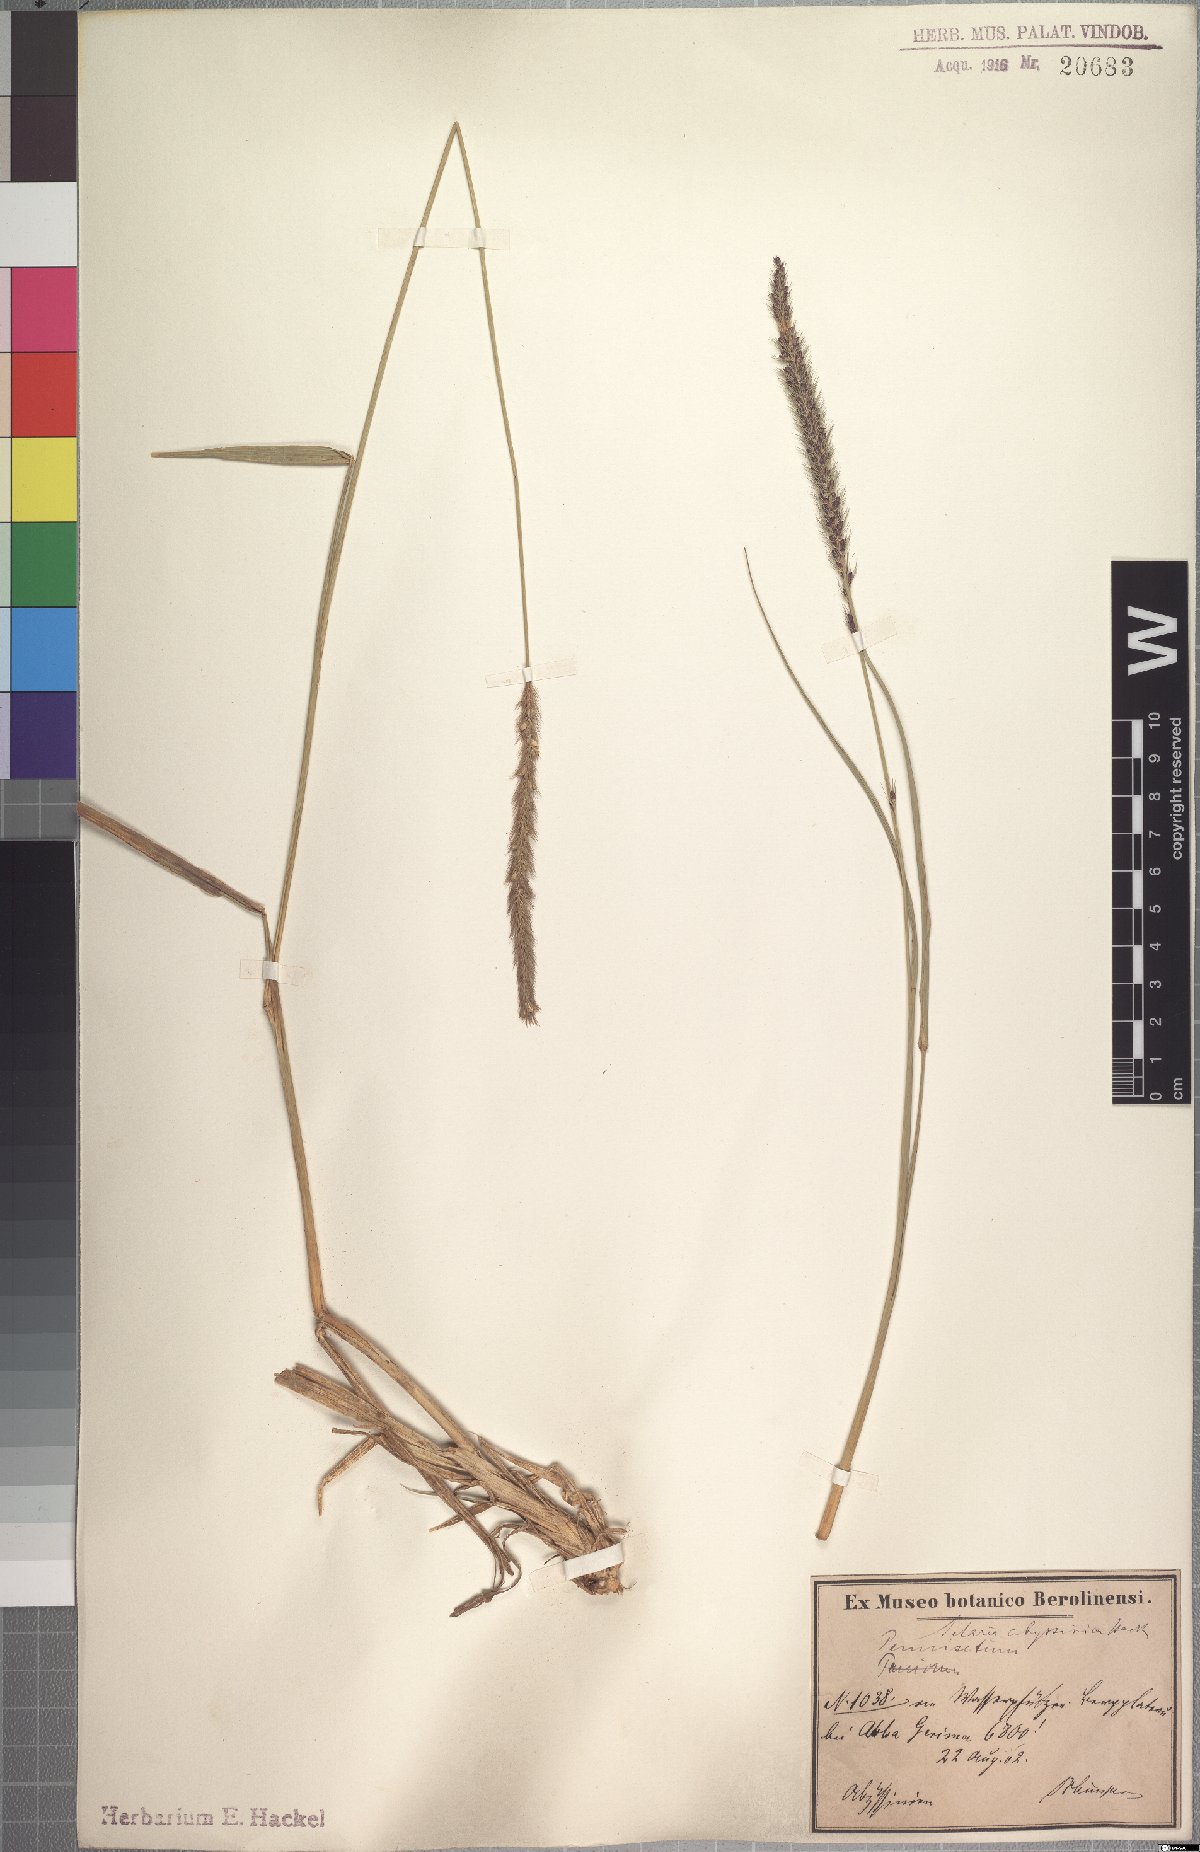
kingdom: Plantae
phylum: Tracheophyta
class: Liliopsida
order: Poales
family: Poaceae
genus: Setaria
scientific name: Setaria incrassata
